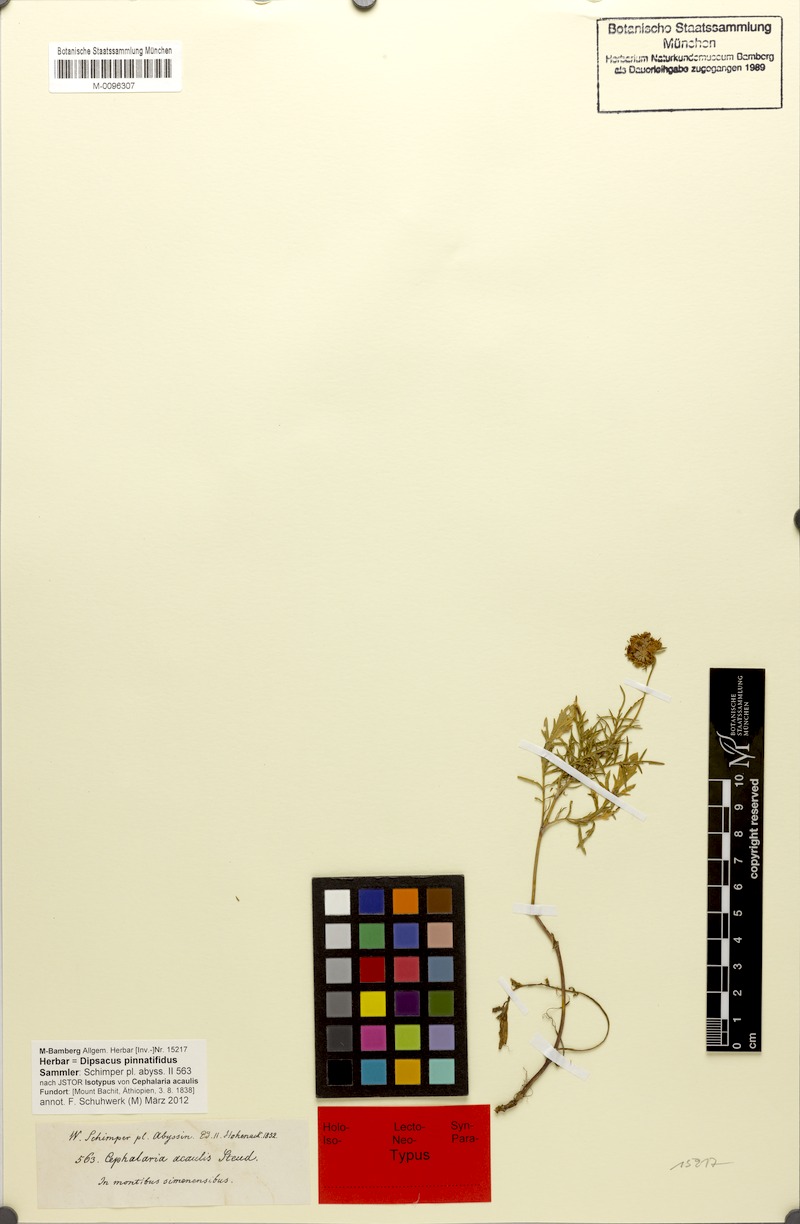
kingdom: Plantae
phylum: Tracheophyta
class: Magnoliopsida
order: Dipsacales
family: Caprifoliaceae
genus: Dipsacus
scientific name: Dipsacus pinnatifidus
